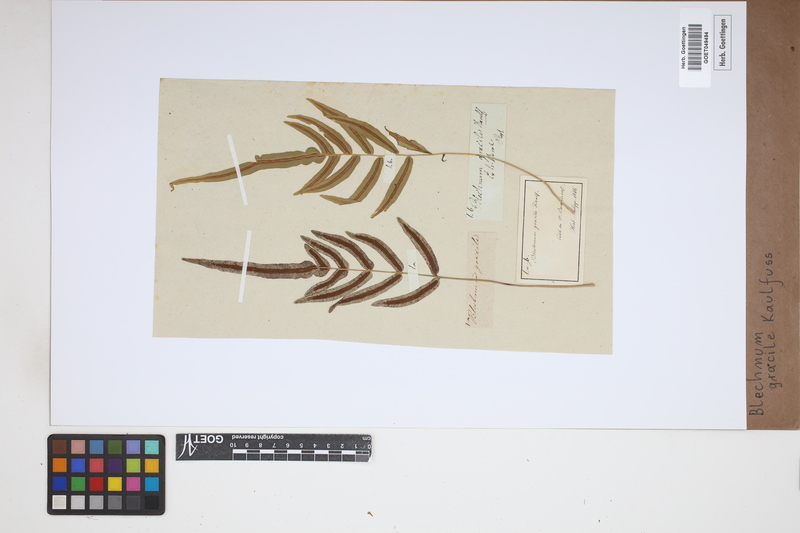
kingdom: Plantae
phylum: Tracheophyta
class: Polypodiopsida
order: Polypodiales
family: Blechnaceae
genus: Blechnum
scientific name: Blechnum gracile
